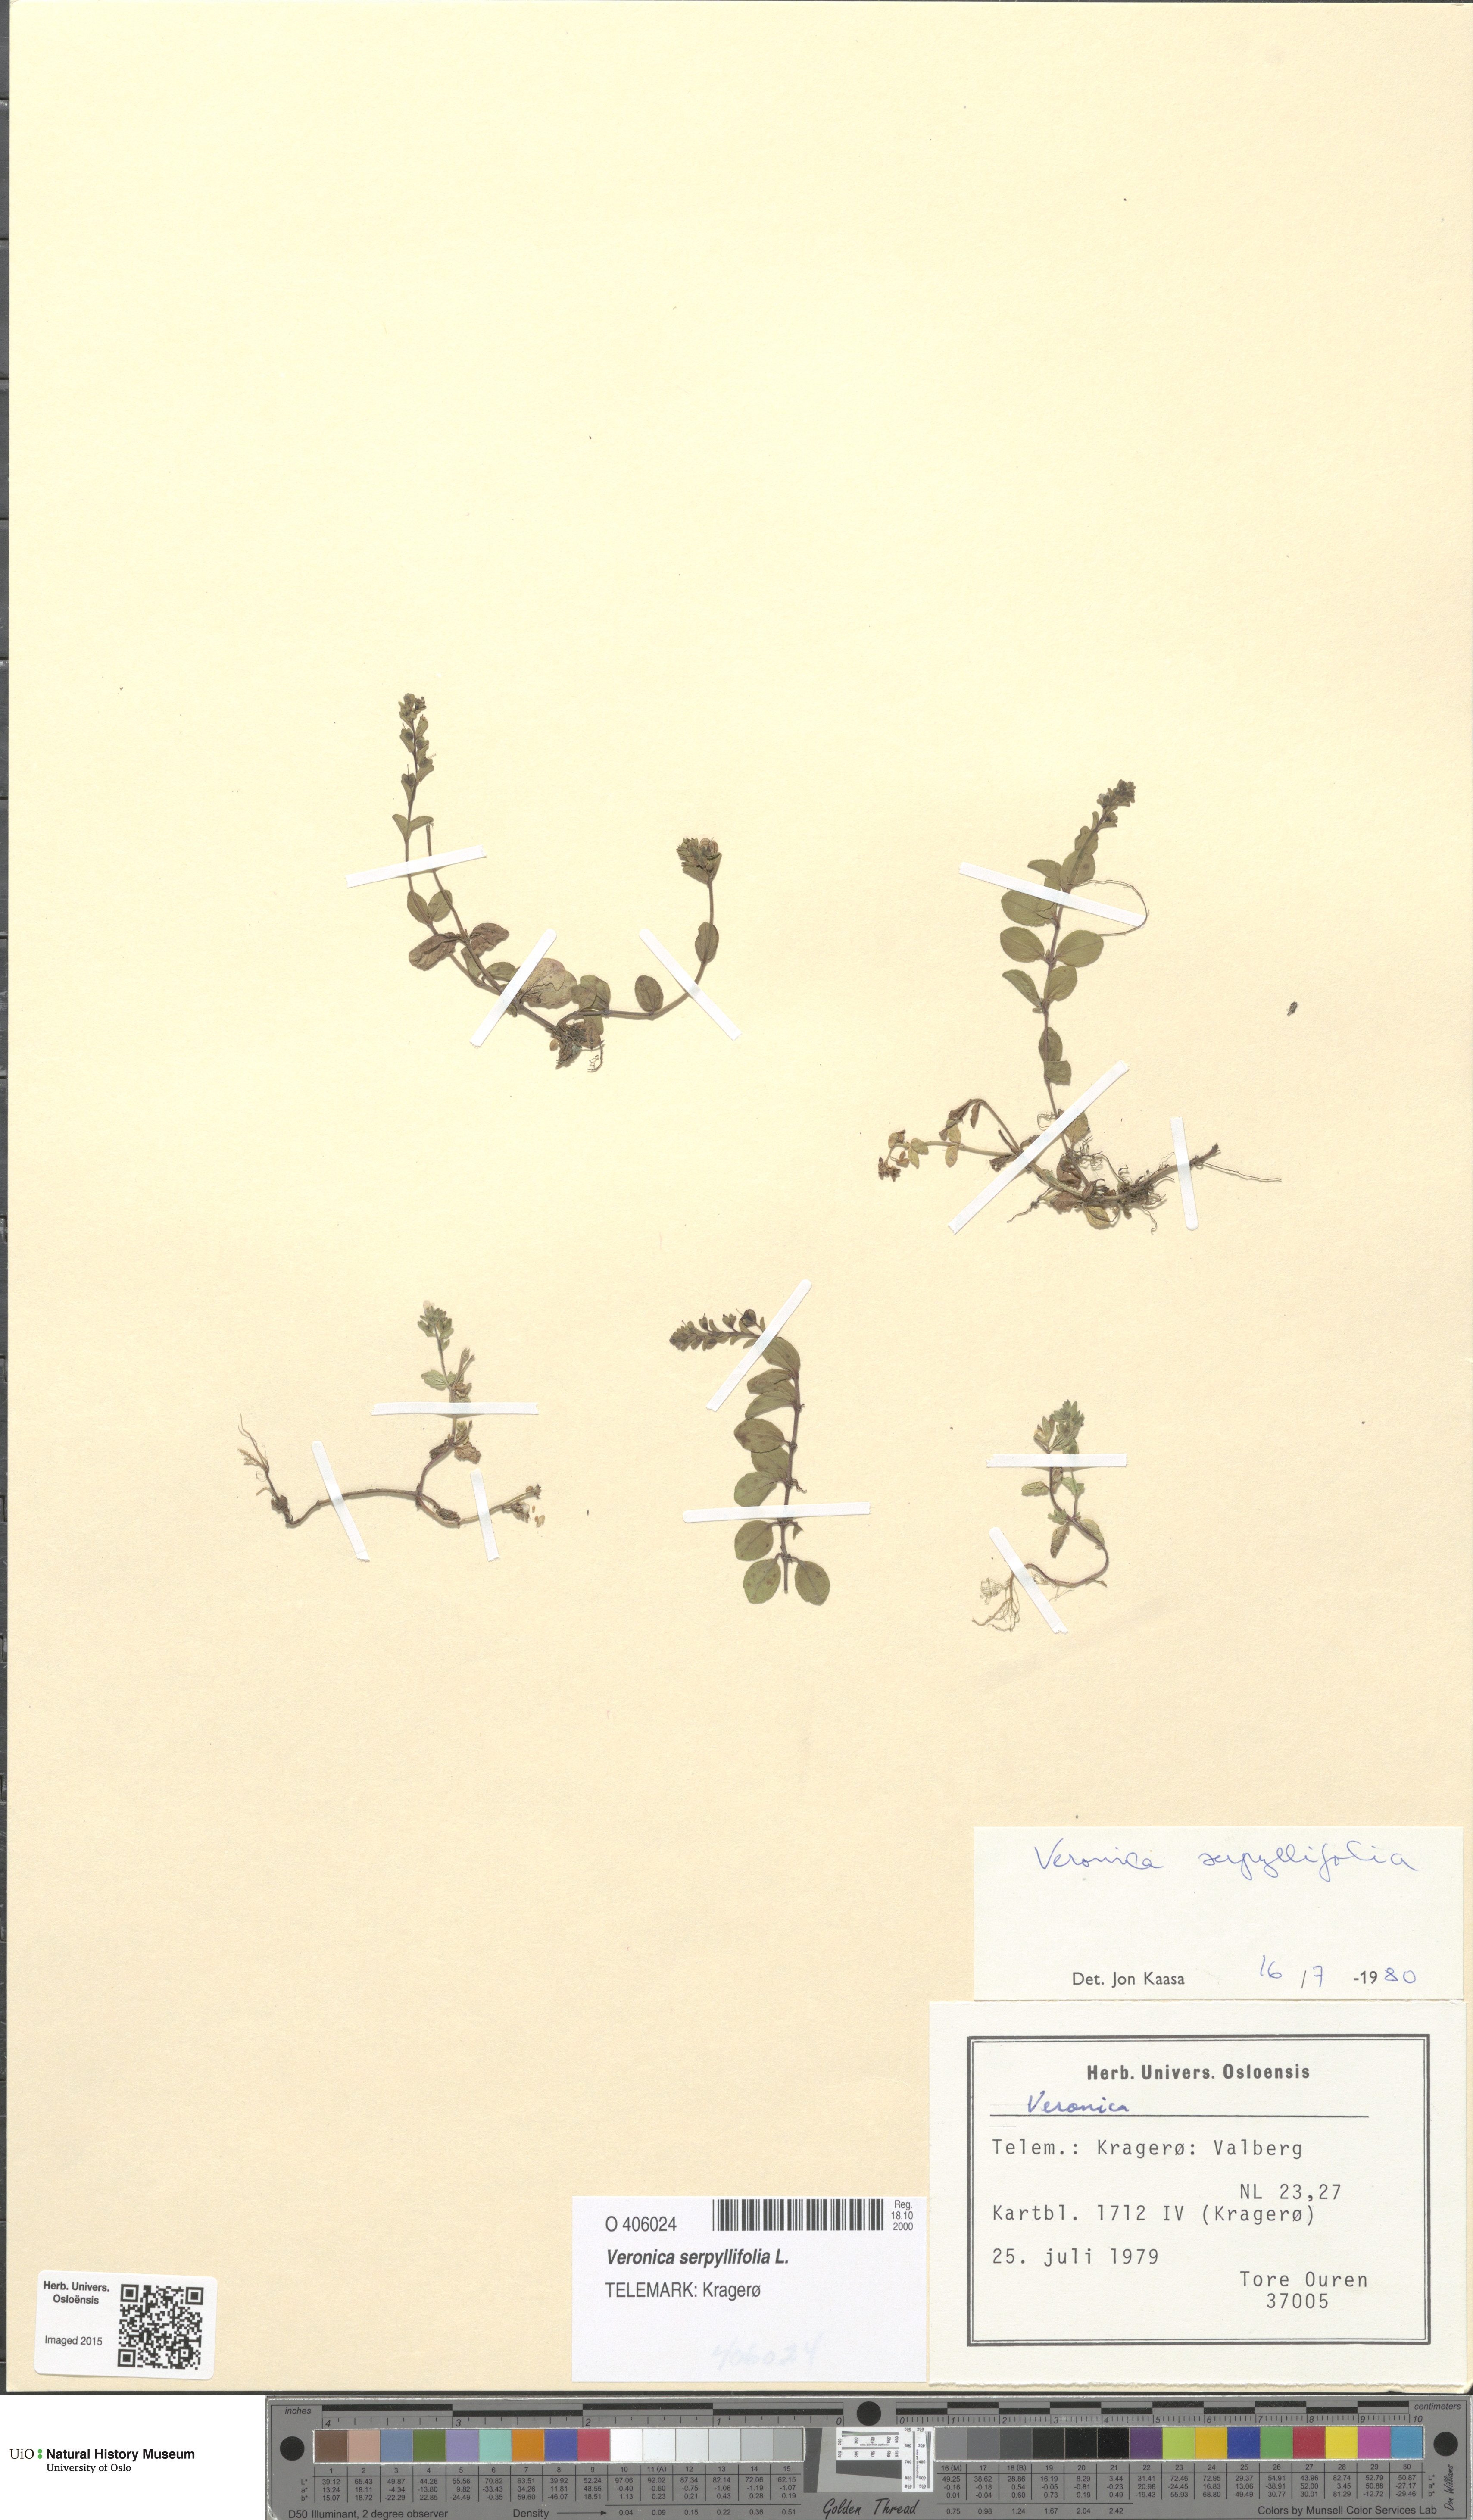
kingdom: Plantae
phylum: Tracheophyta
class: Magnoliopsida
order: Lamiales
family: Plantaginaceae
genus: Veronica
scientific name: Veronica serpyllifolia
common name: Thyme-leaved speedwell
